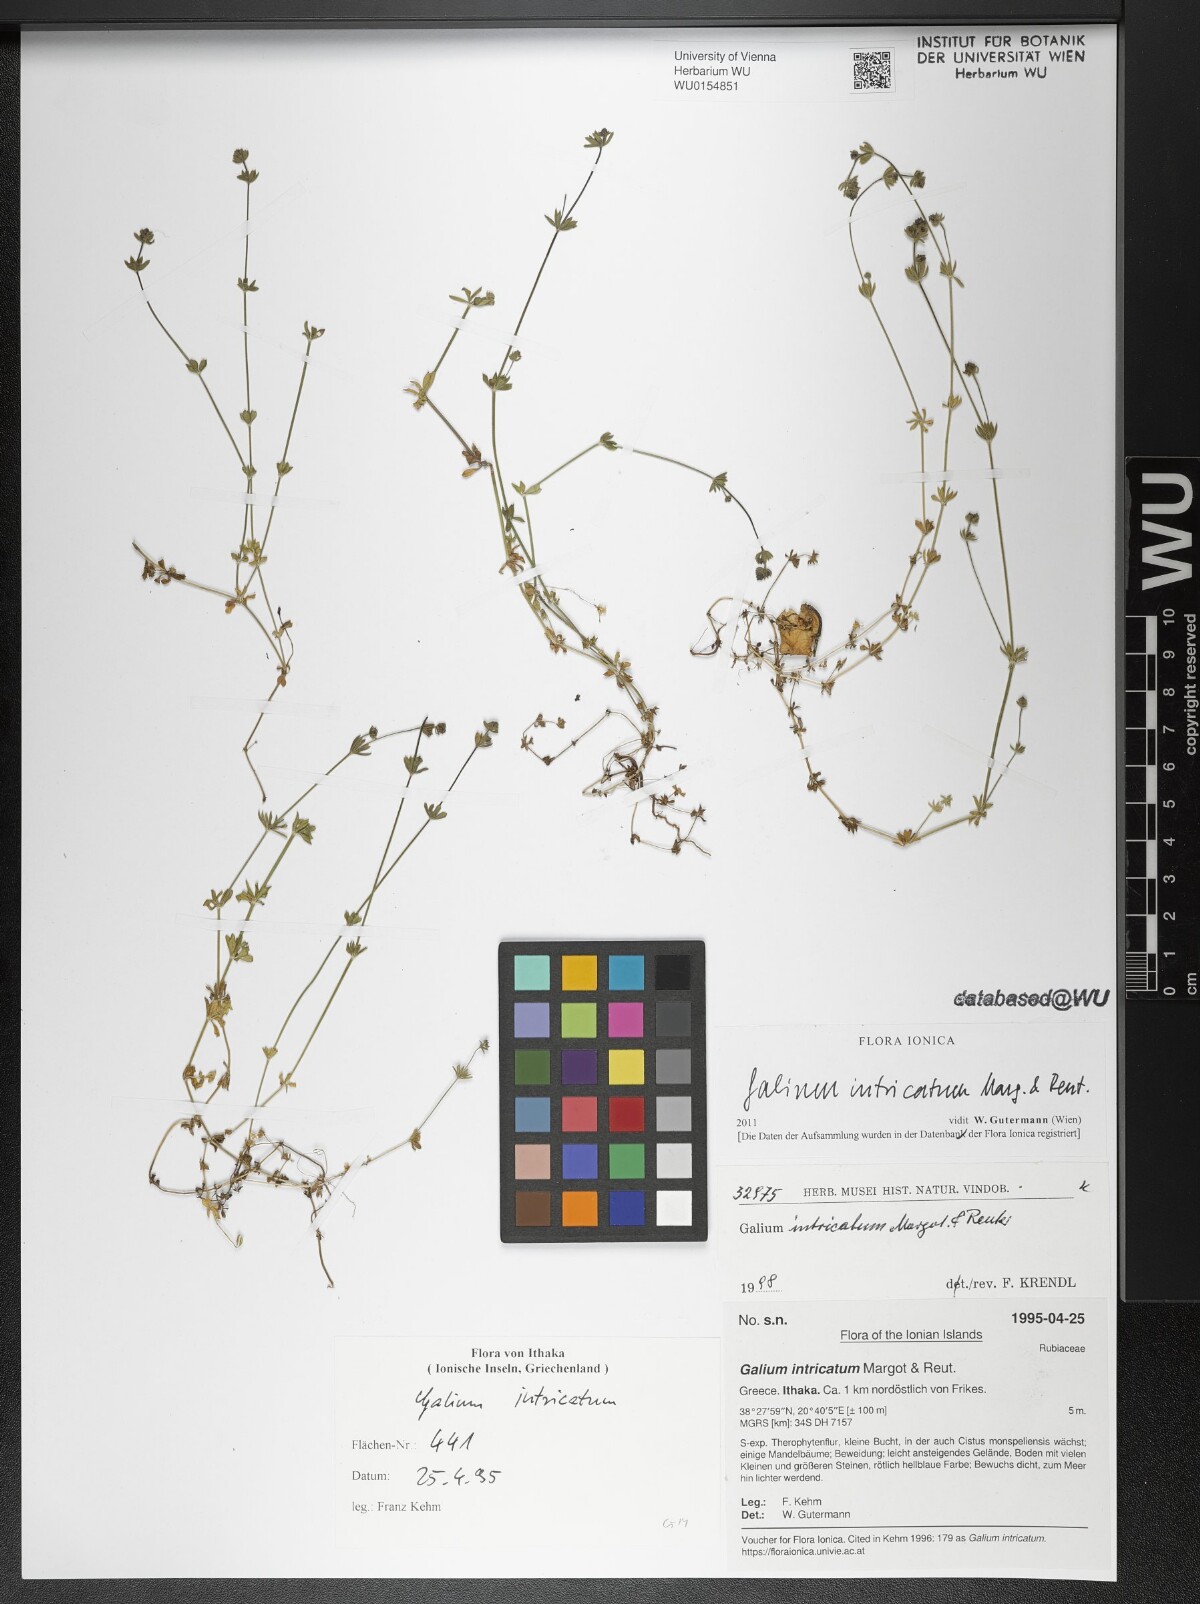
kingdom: Plantae
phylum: Tracheophyta
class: Magnoliopsida
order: Gentianales
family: Rubiaceae
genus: Galium
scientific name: Galium intricatum
